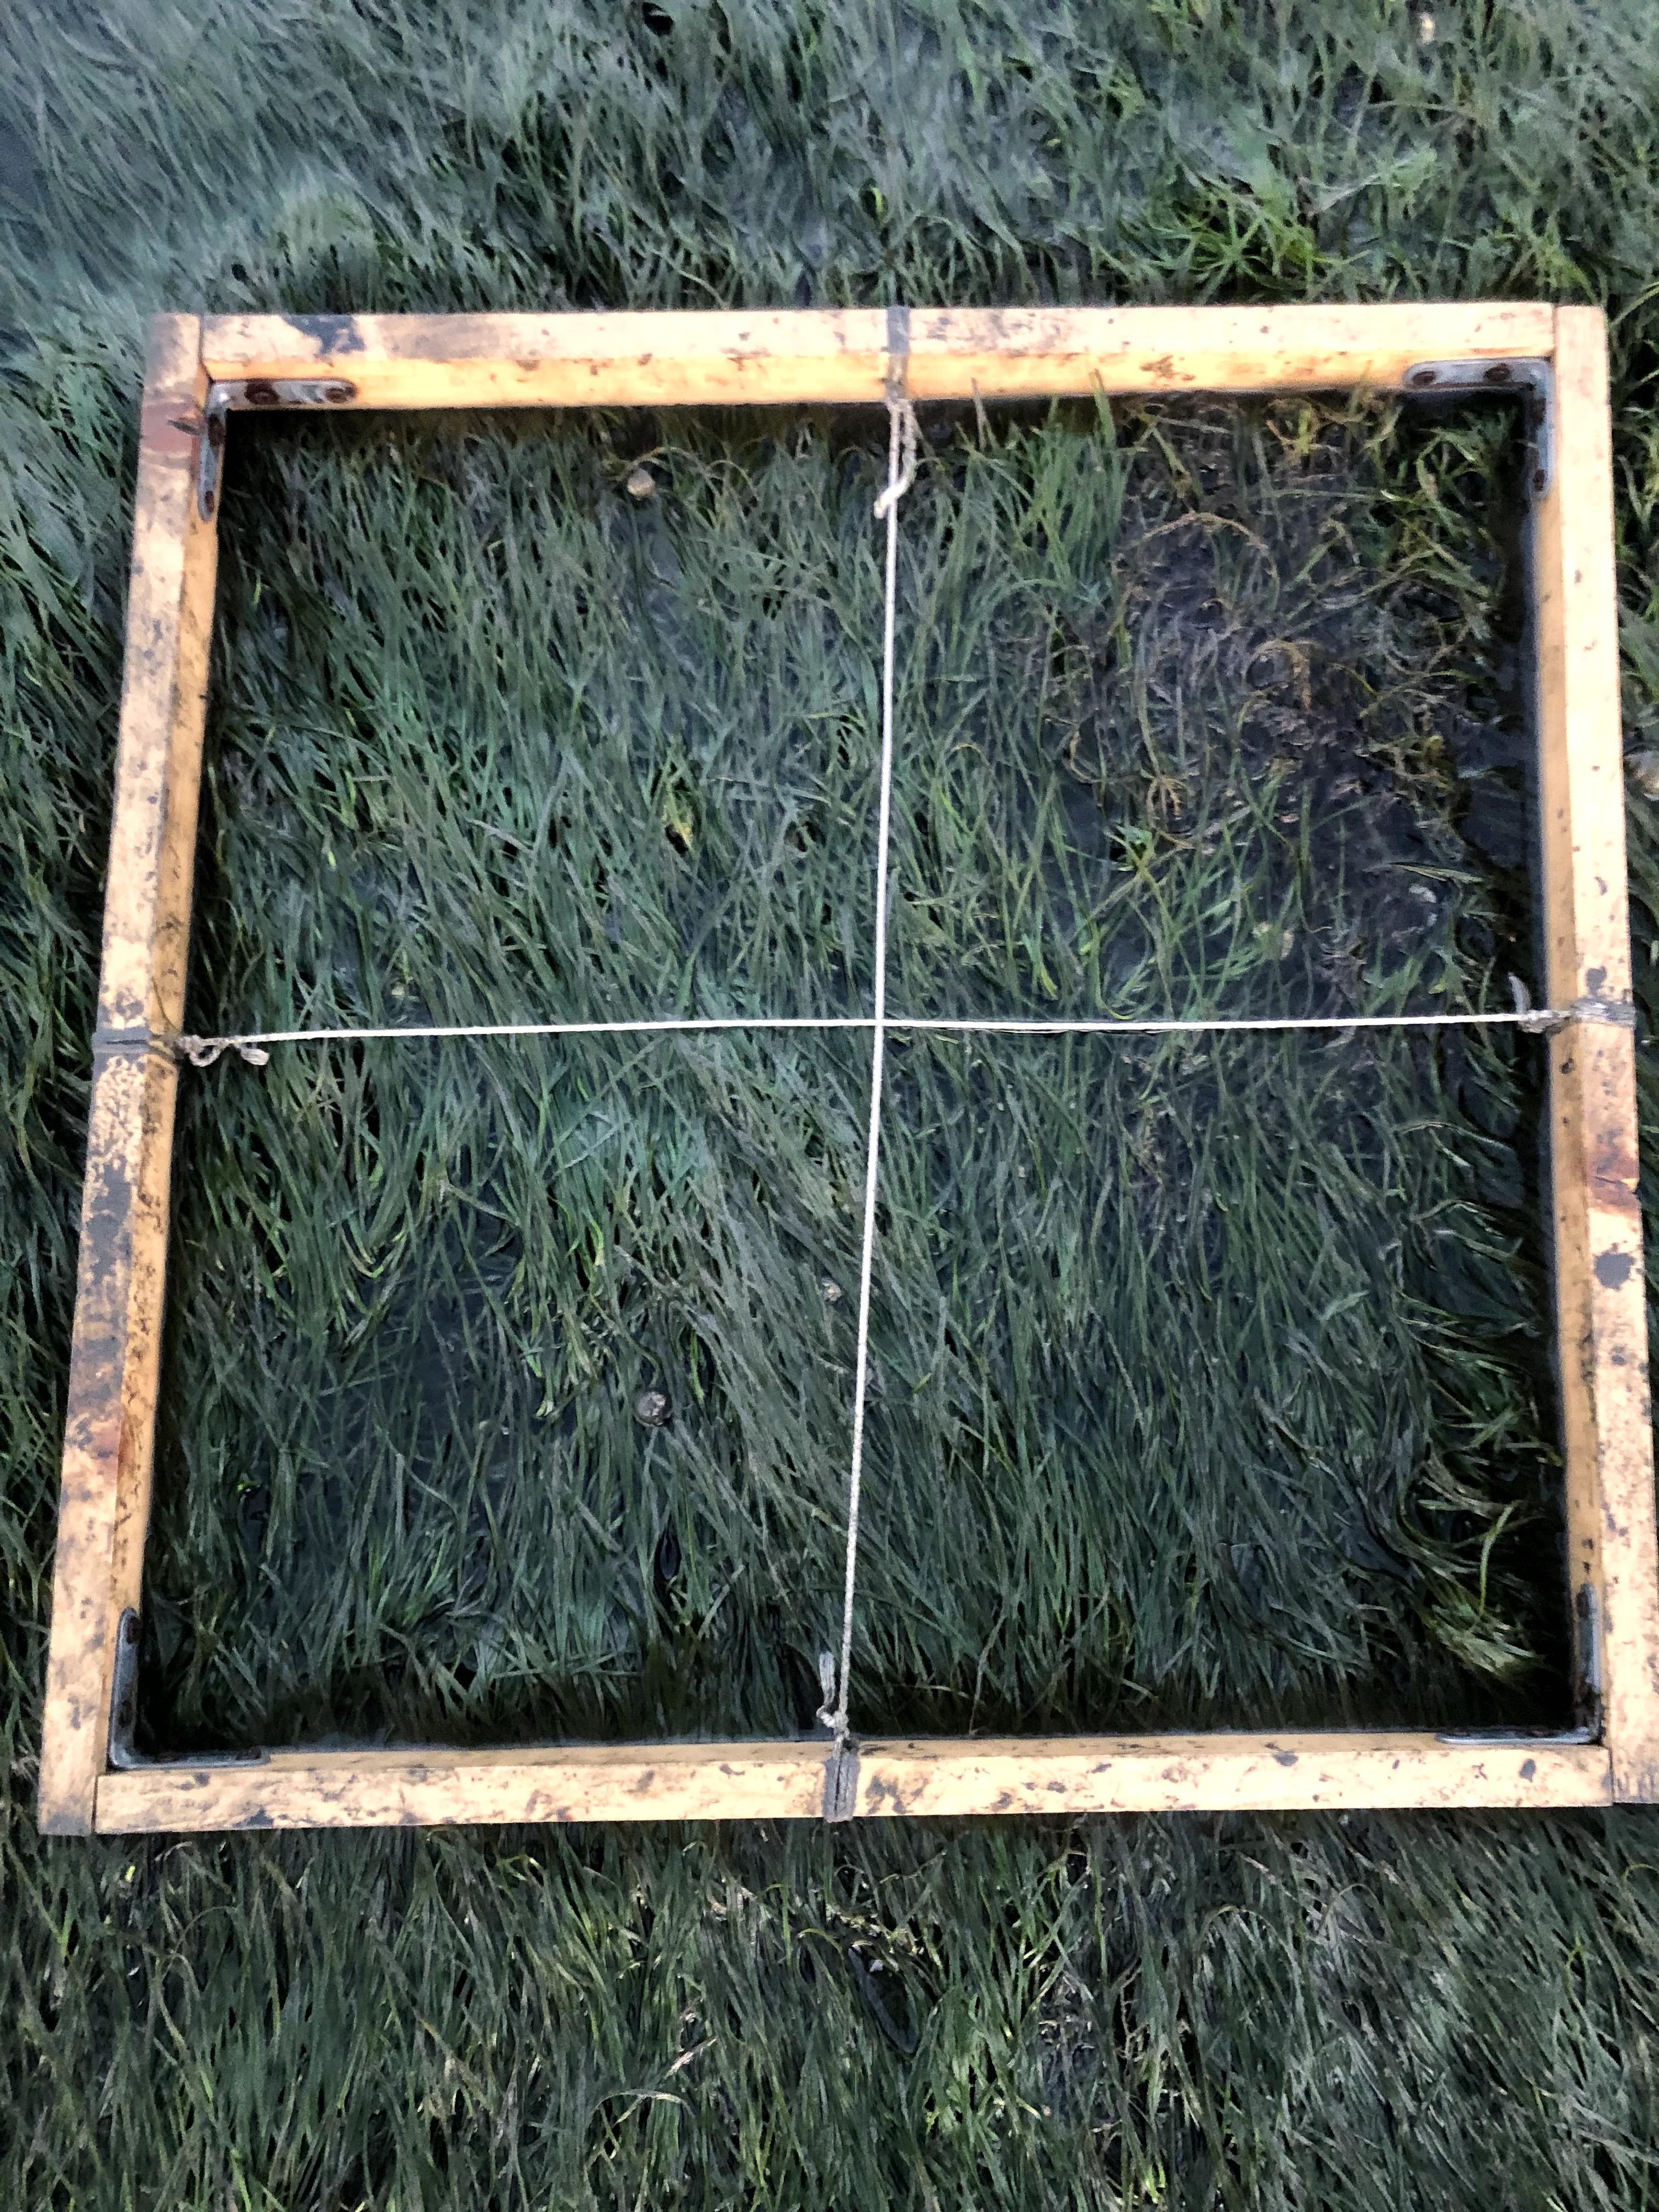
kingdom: Plantae
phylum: Rhodophyta
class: Florideophyceae
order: Gracilariales
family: Gracilariaceae
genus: Gracilaria
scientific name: Gracilaria vermiculophylla
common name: Algae
